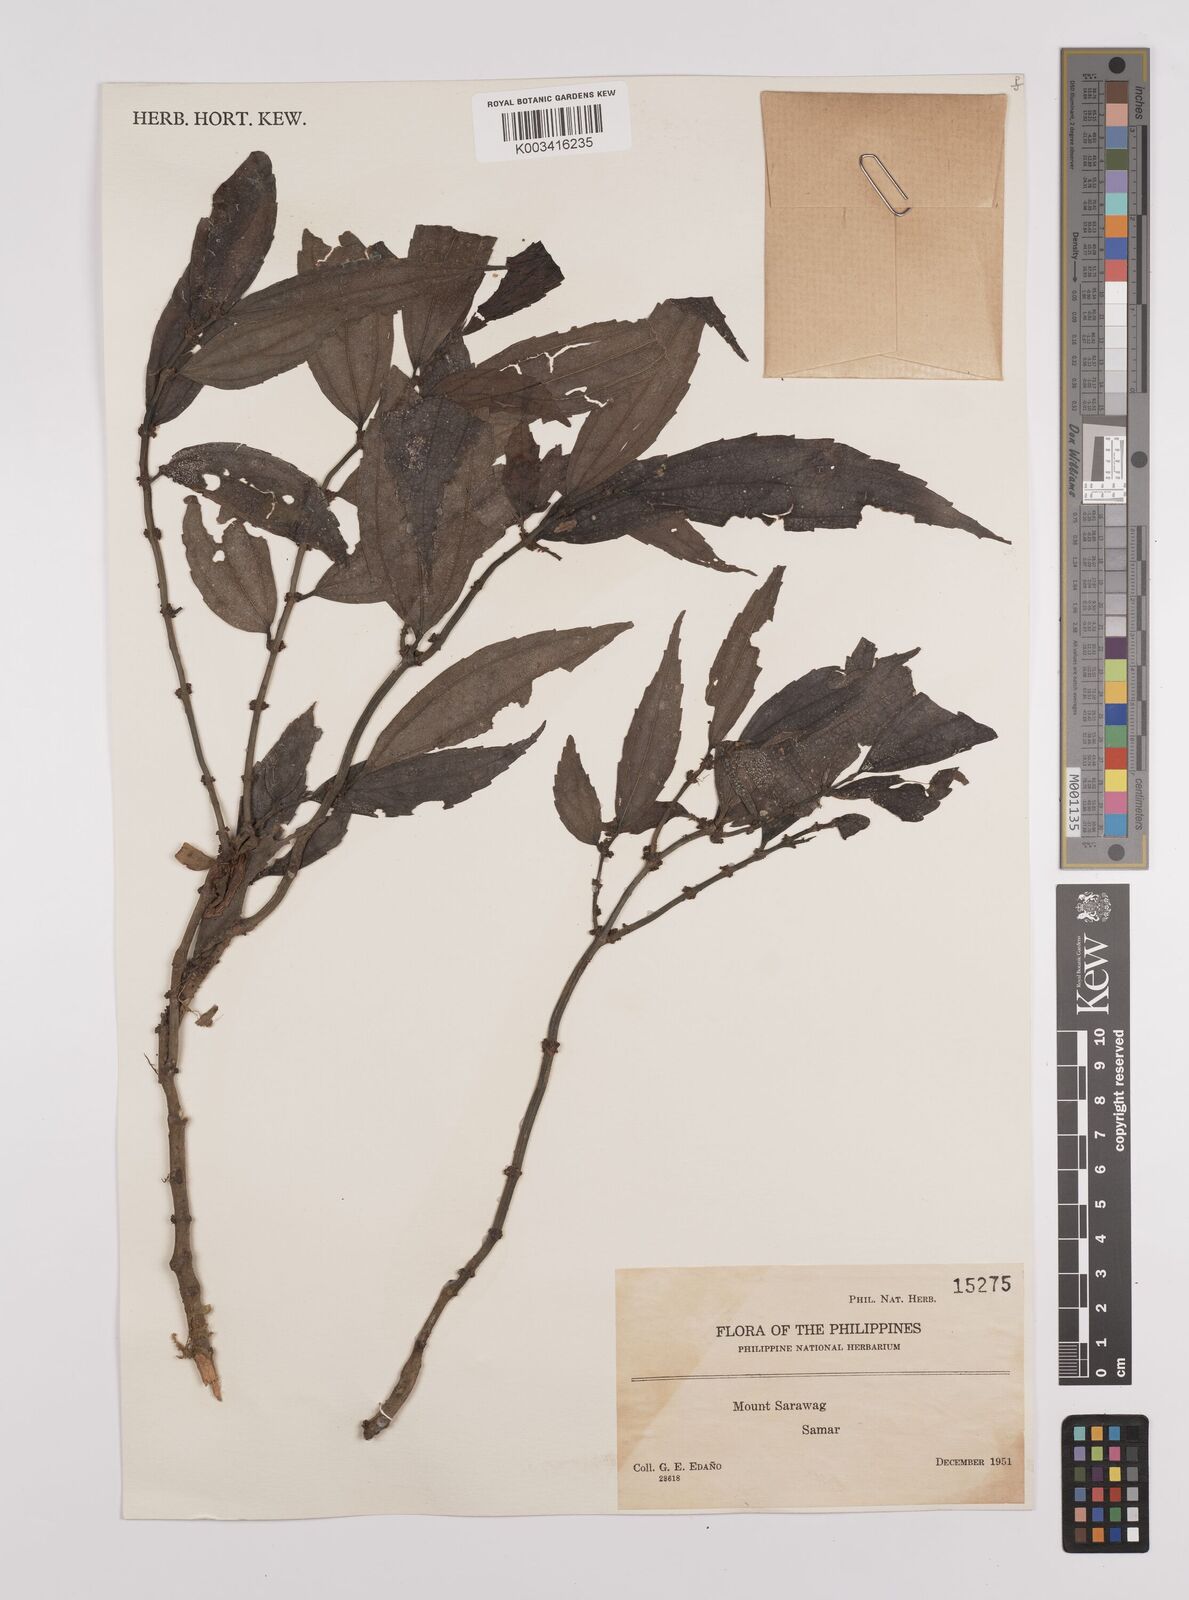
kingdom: Plantae
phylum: Tracheophyta
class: Magnoliopsida
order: Rosales
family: Urticaceae
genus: Elatostema
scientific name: Elatostema
